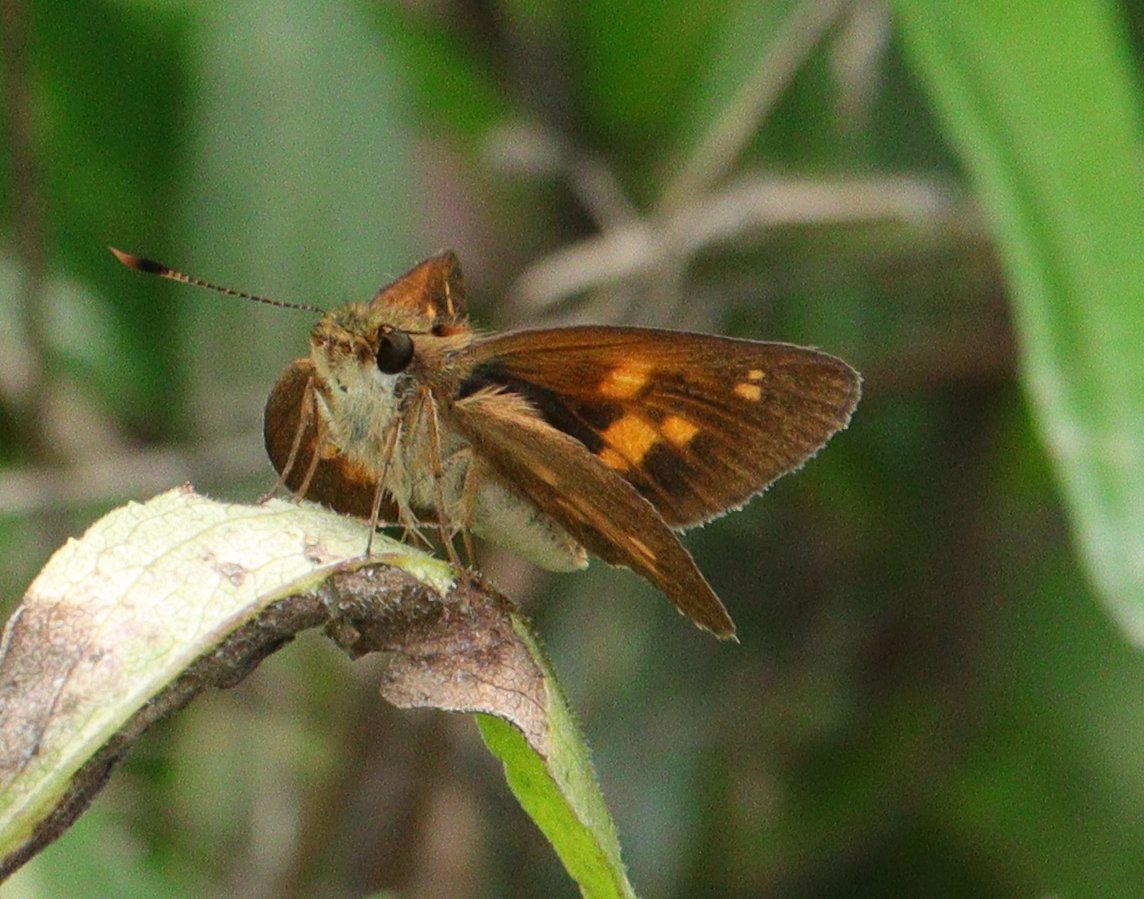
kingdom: Animalia
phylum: Arthropoda
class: Insecta
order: Lepidoptera
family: Hesperiidae
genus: Poanes
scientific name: Poanes viator
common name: Broad-winged Skipper
